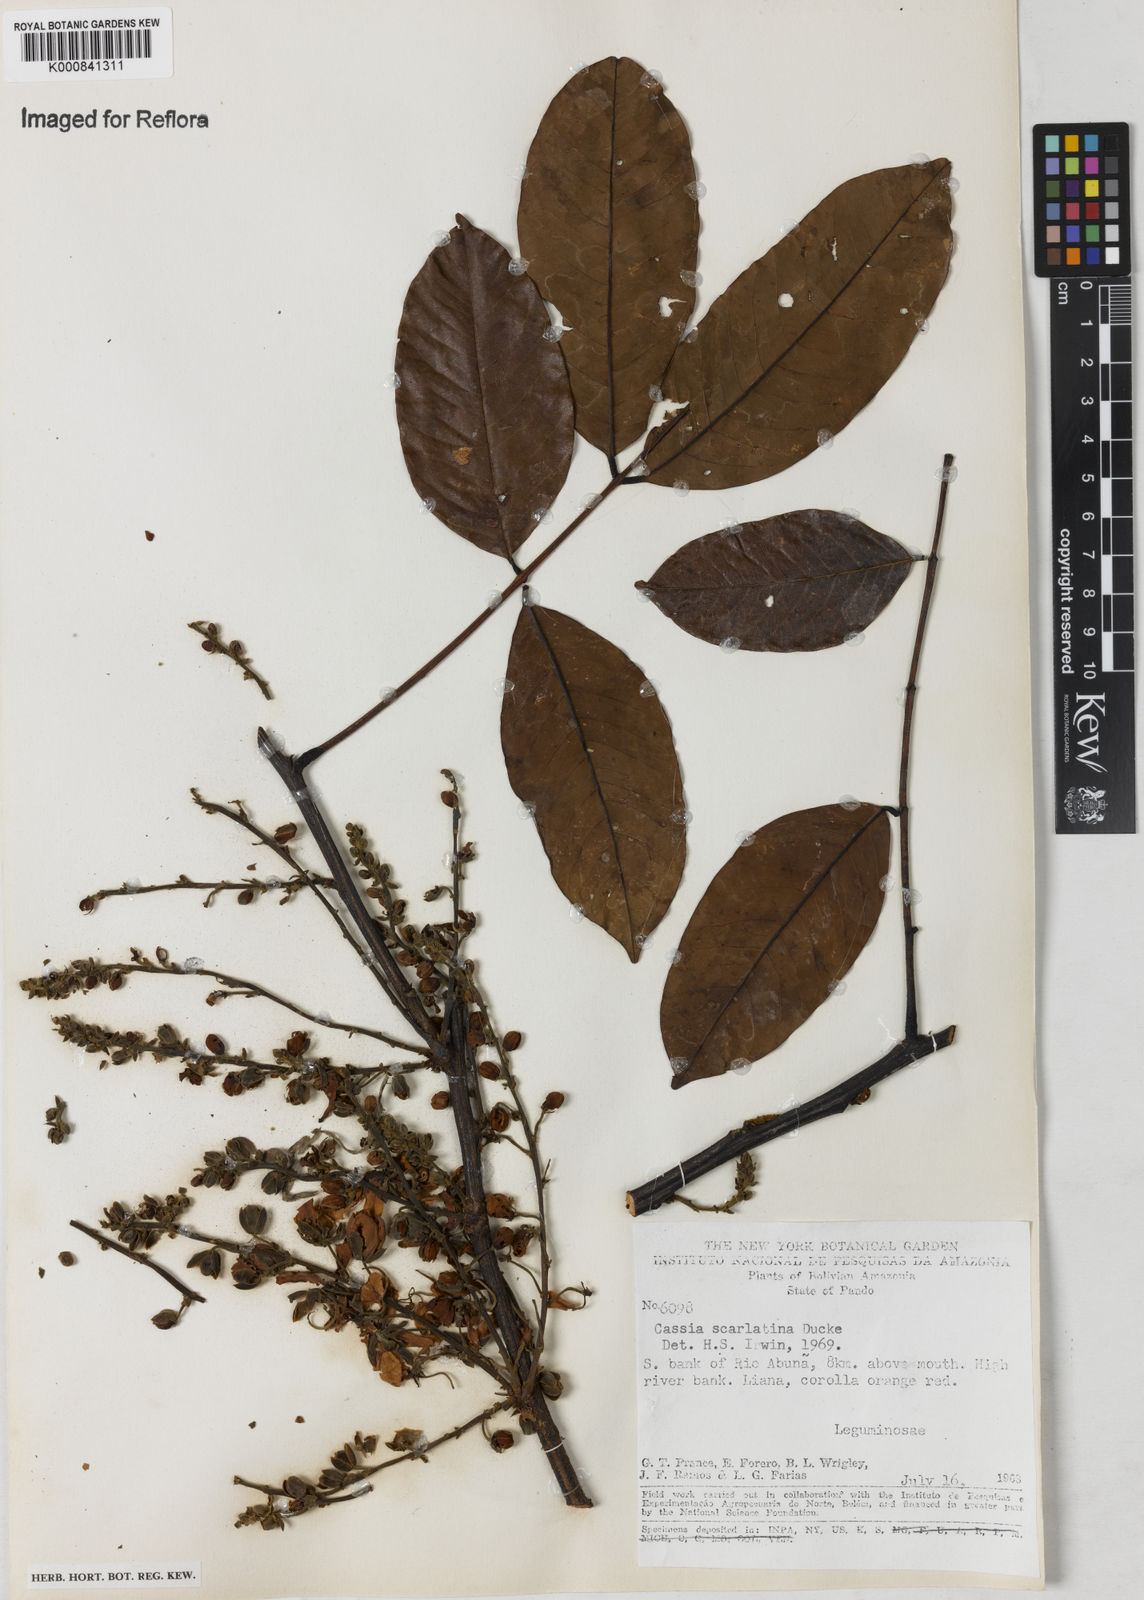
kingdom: Plantae
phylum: Tracheophyta
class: Magnoliopsida
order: Fabales
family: Fabaceae
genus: Cassia
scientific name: Cassia swartzioides
